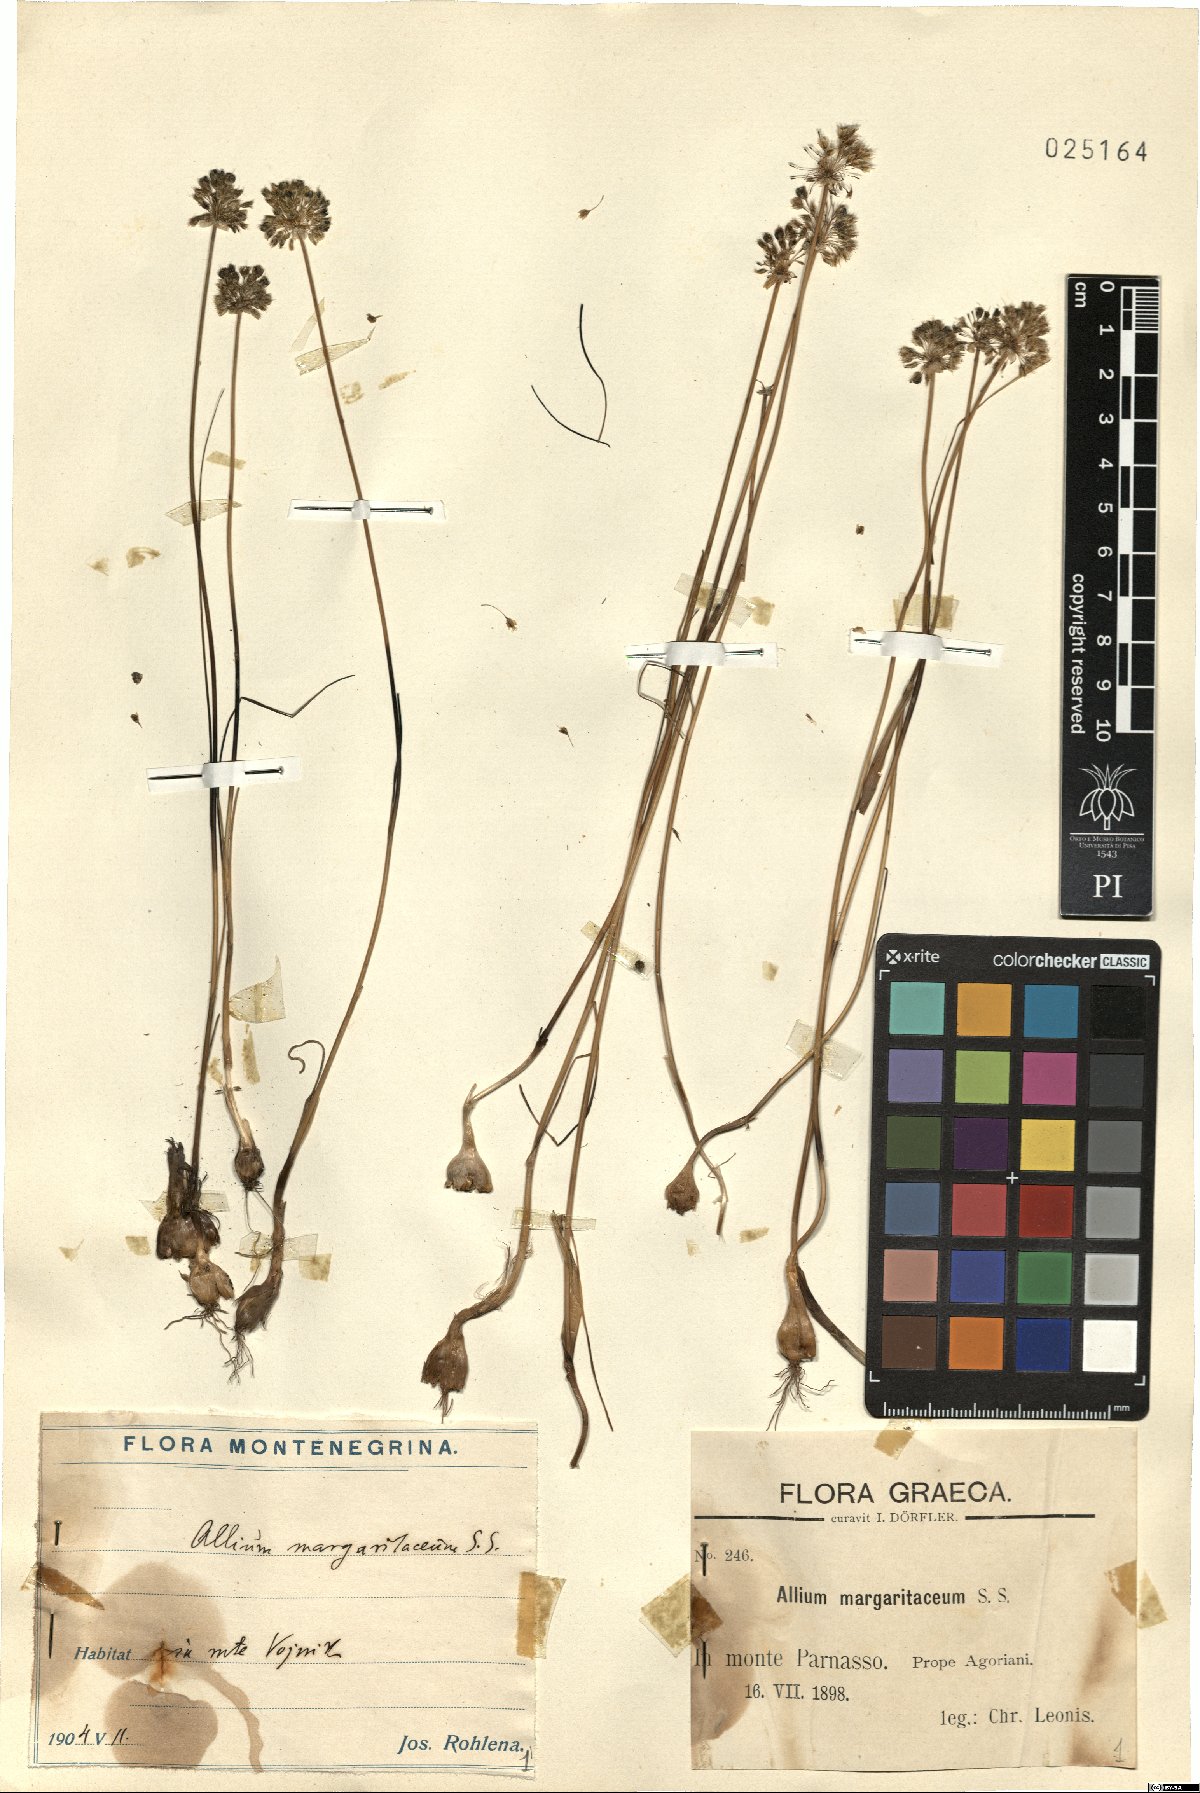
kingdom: Plantae
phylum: Tracheophyta
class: Liliopsida
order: Asparagales
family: Amaryllidaceae
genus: Allium
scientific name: Allium sardoum
